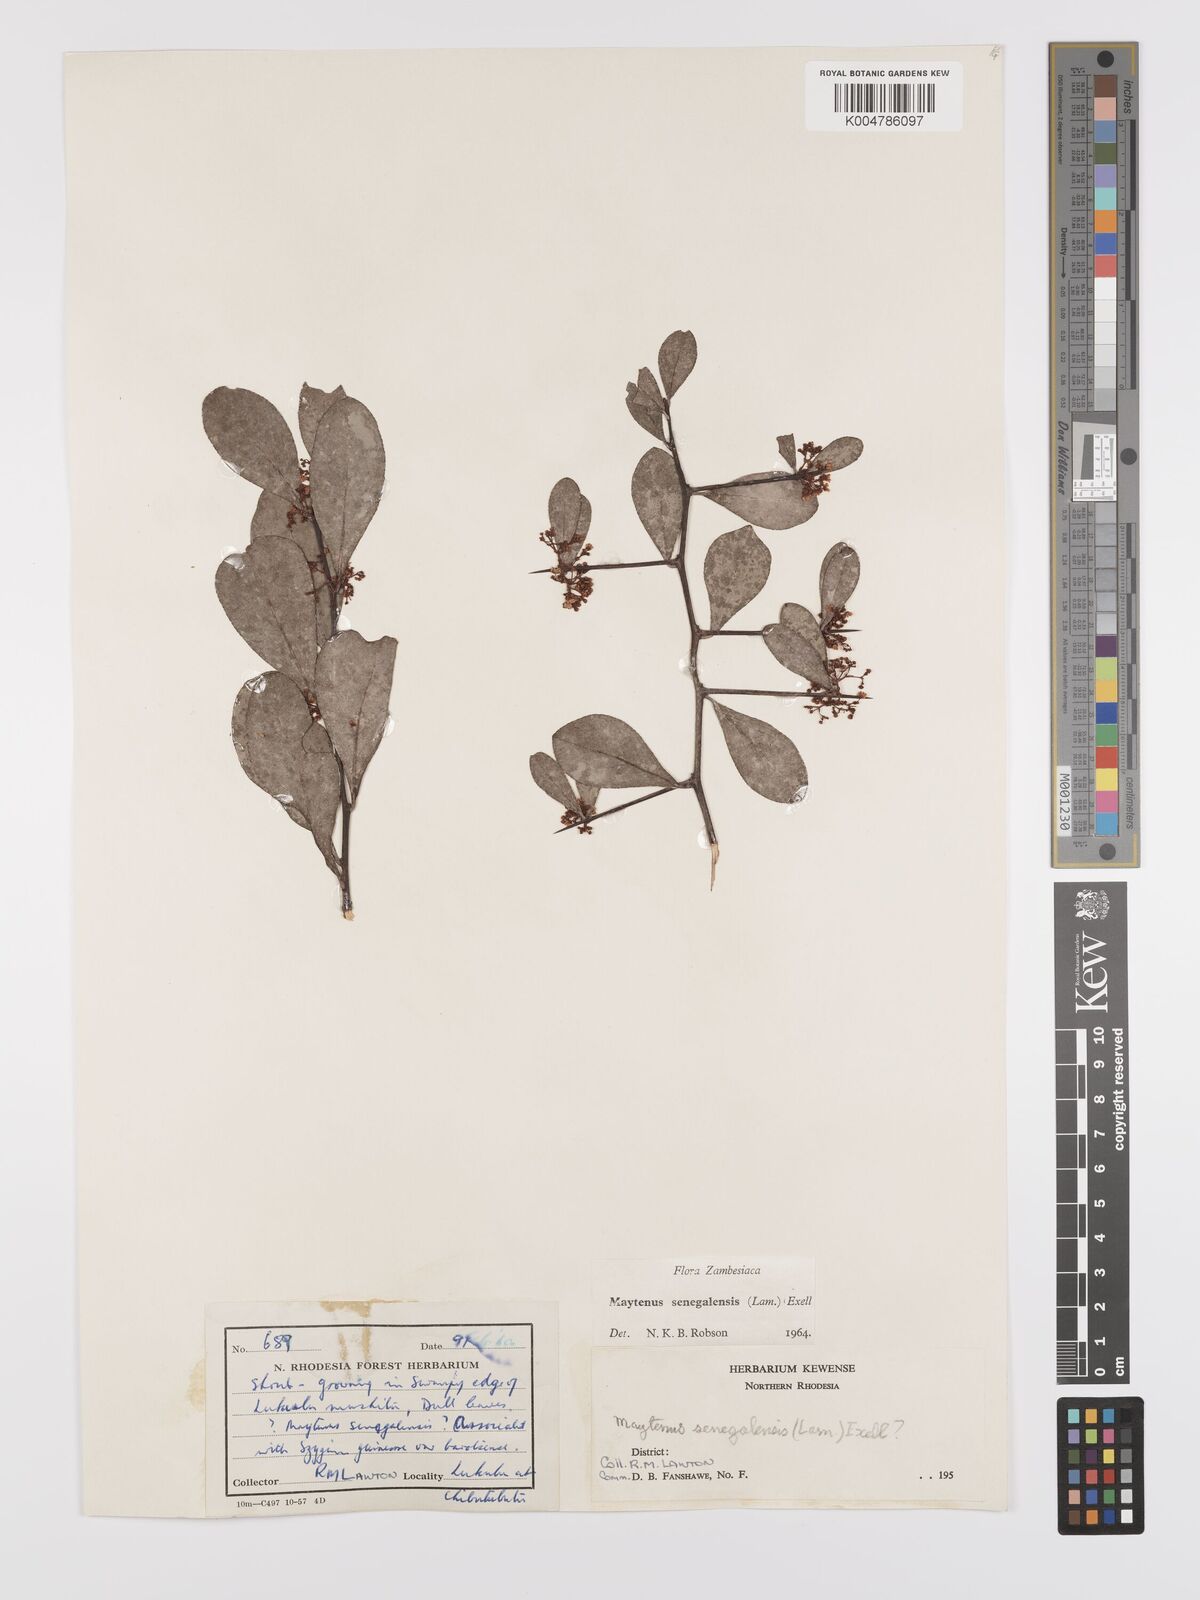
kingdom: Plantae
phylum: Tracheophyta
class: Magnoliopsida
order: Celastrales
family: Celastraceae
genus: Gymnosporia
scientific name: Gymnosporia senegalensis
